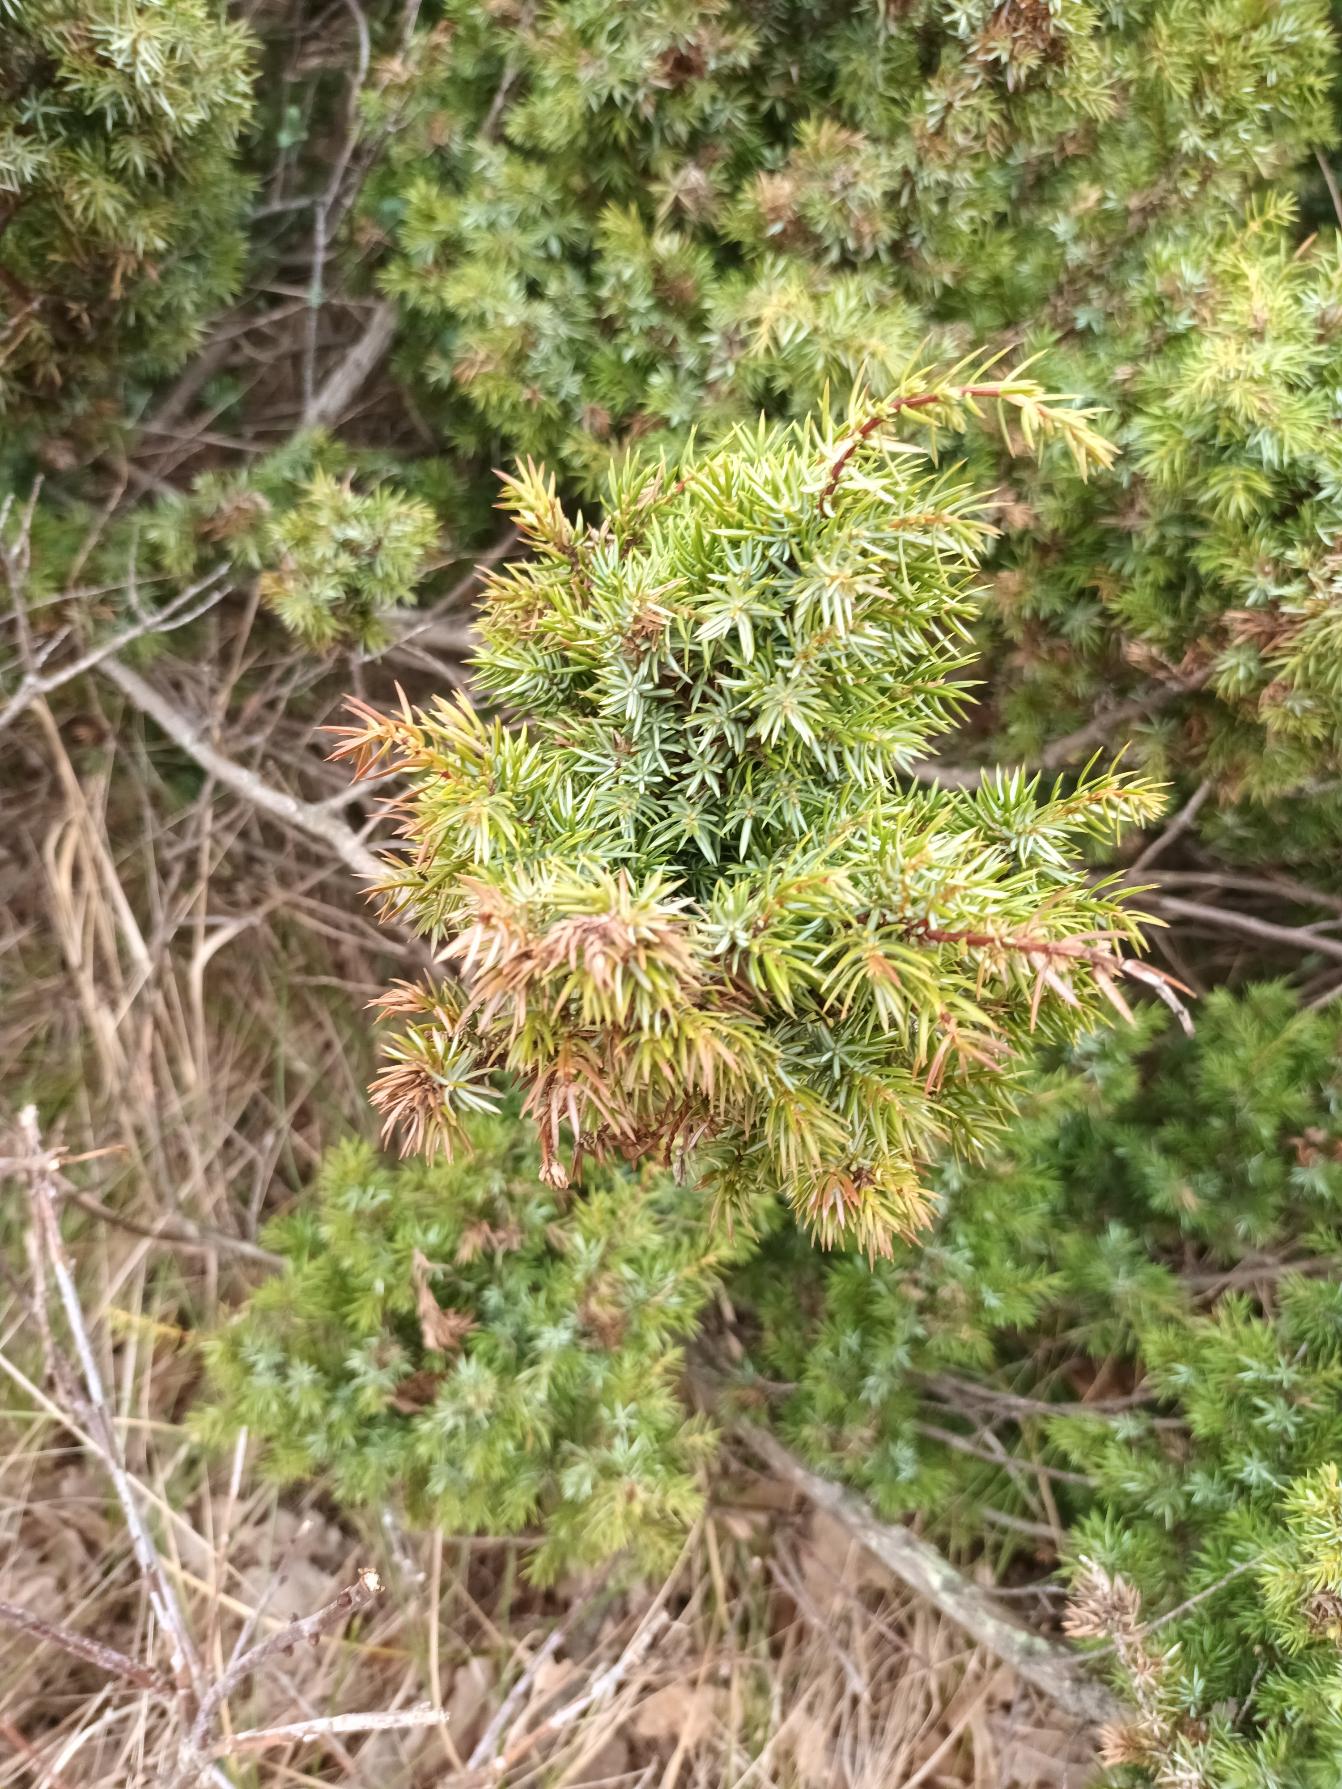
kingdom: Plantae
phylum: Tracheophyta
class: Pinopsida
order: Pinales
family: Cupressaceae
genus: Juniperus
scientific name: Juniperus communis
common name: Almindelig ene
